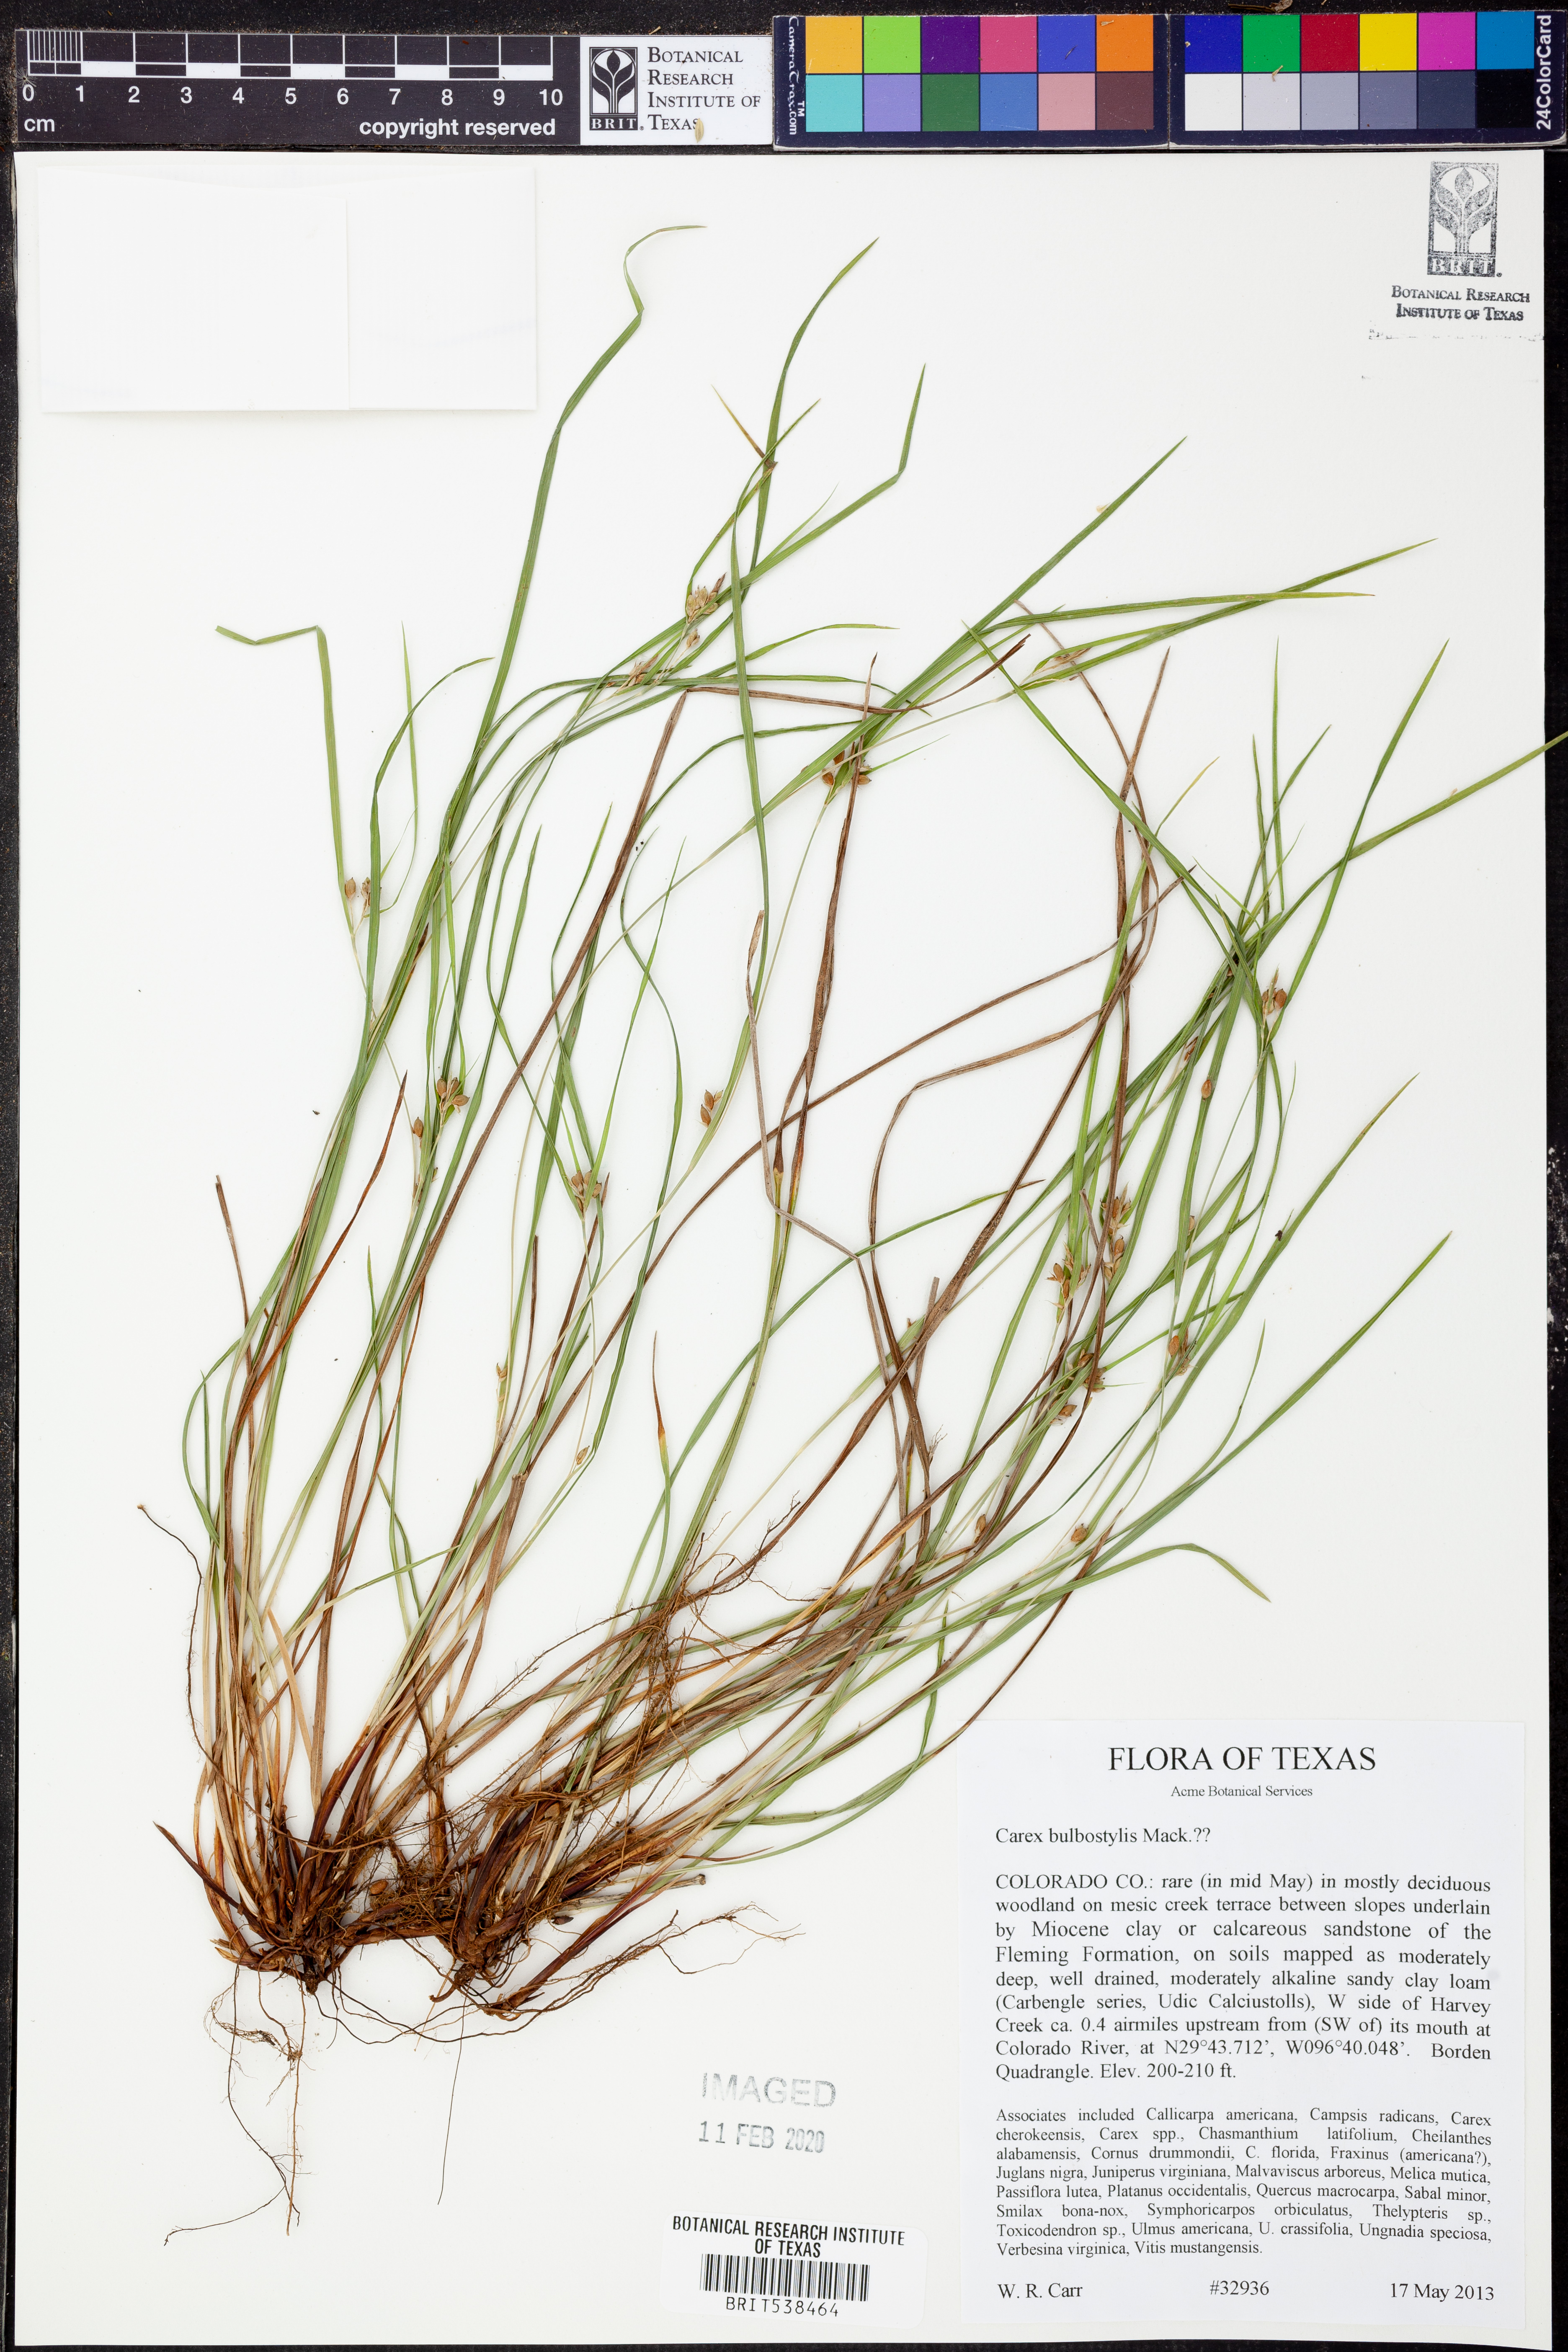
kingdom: Plantae
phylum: Tracheophyta
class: Liliopsida
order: Poales
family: Cyperaceae
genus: Carex
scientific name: Carex bulbostylis
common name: Eastern narrowleaf sedge
